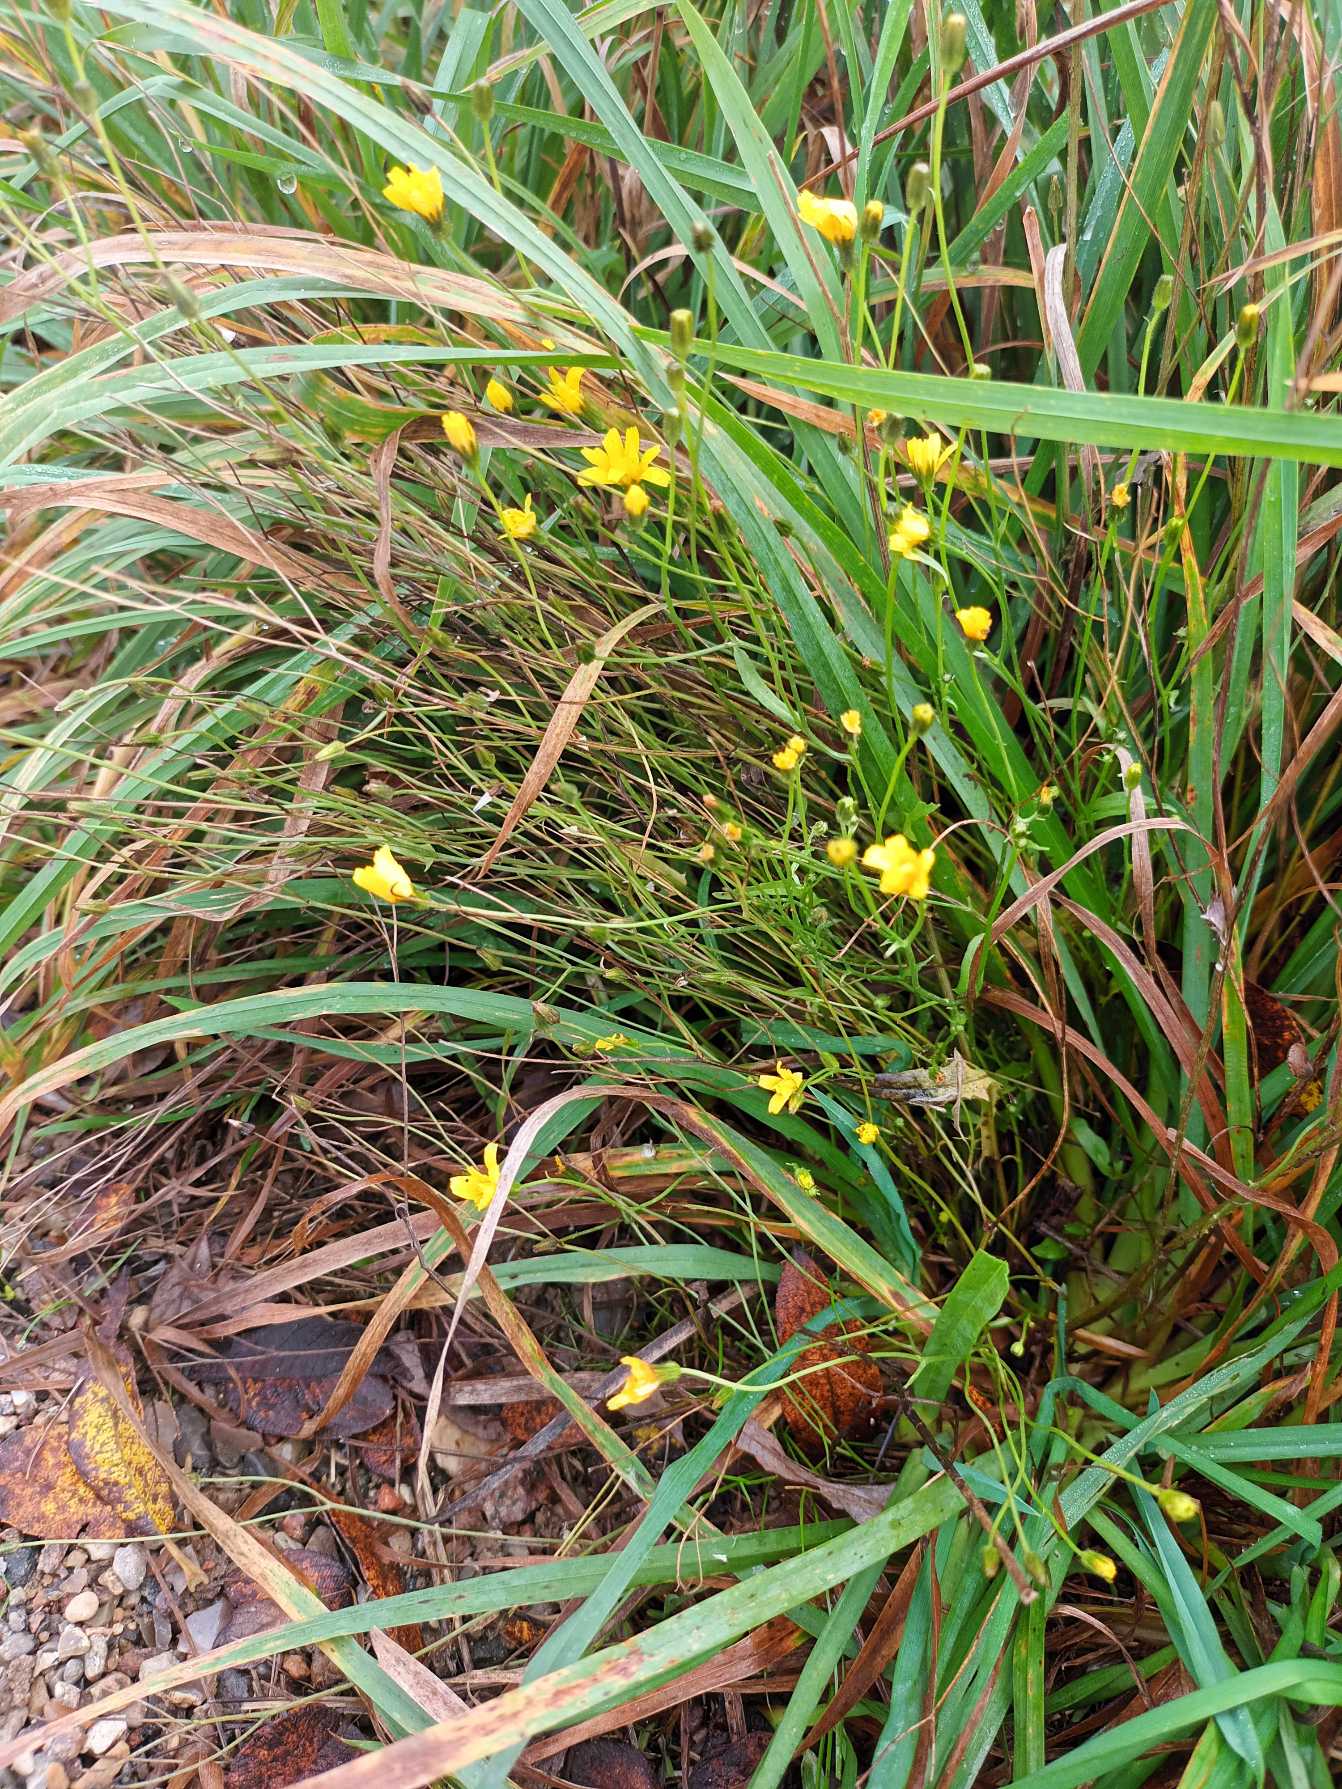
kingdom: Plantae
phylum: Tracheophyta
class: Magnoliopsida
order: Asterales
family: Asteraceae
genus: Crepis
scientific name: Crepis capillaris
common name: Grøn høgeskæg
